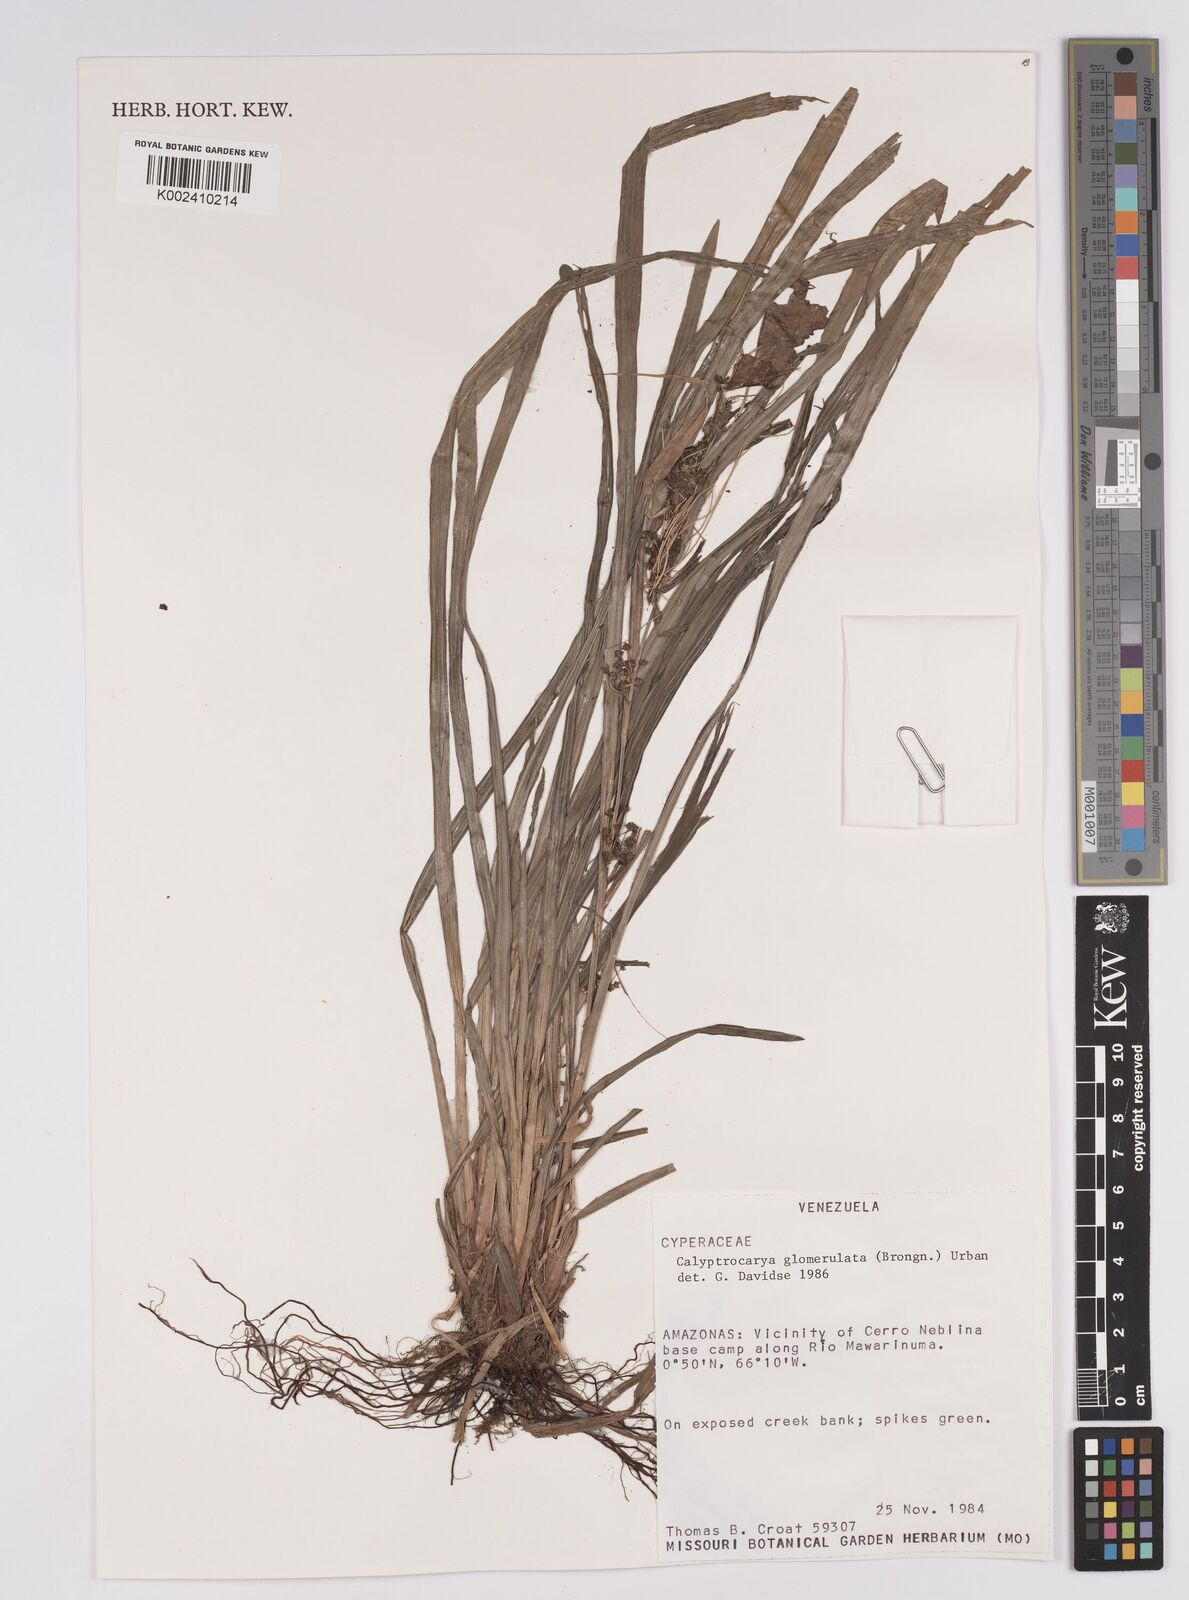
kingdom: Plantae
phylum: Tracheophyta
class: Liliopsida
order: Poales
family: Cyperaceae
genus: Calyptrocarya
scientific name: Calyptrocarya glomerulata
